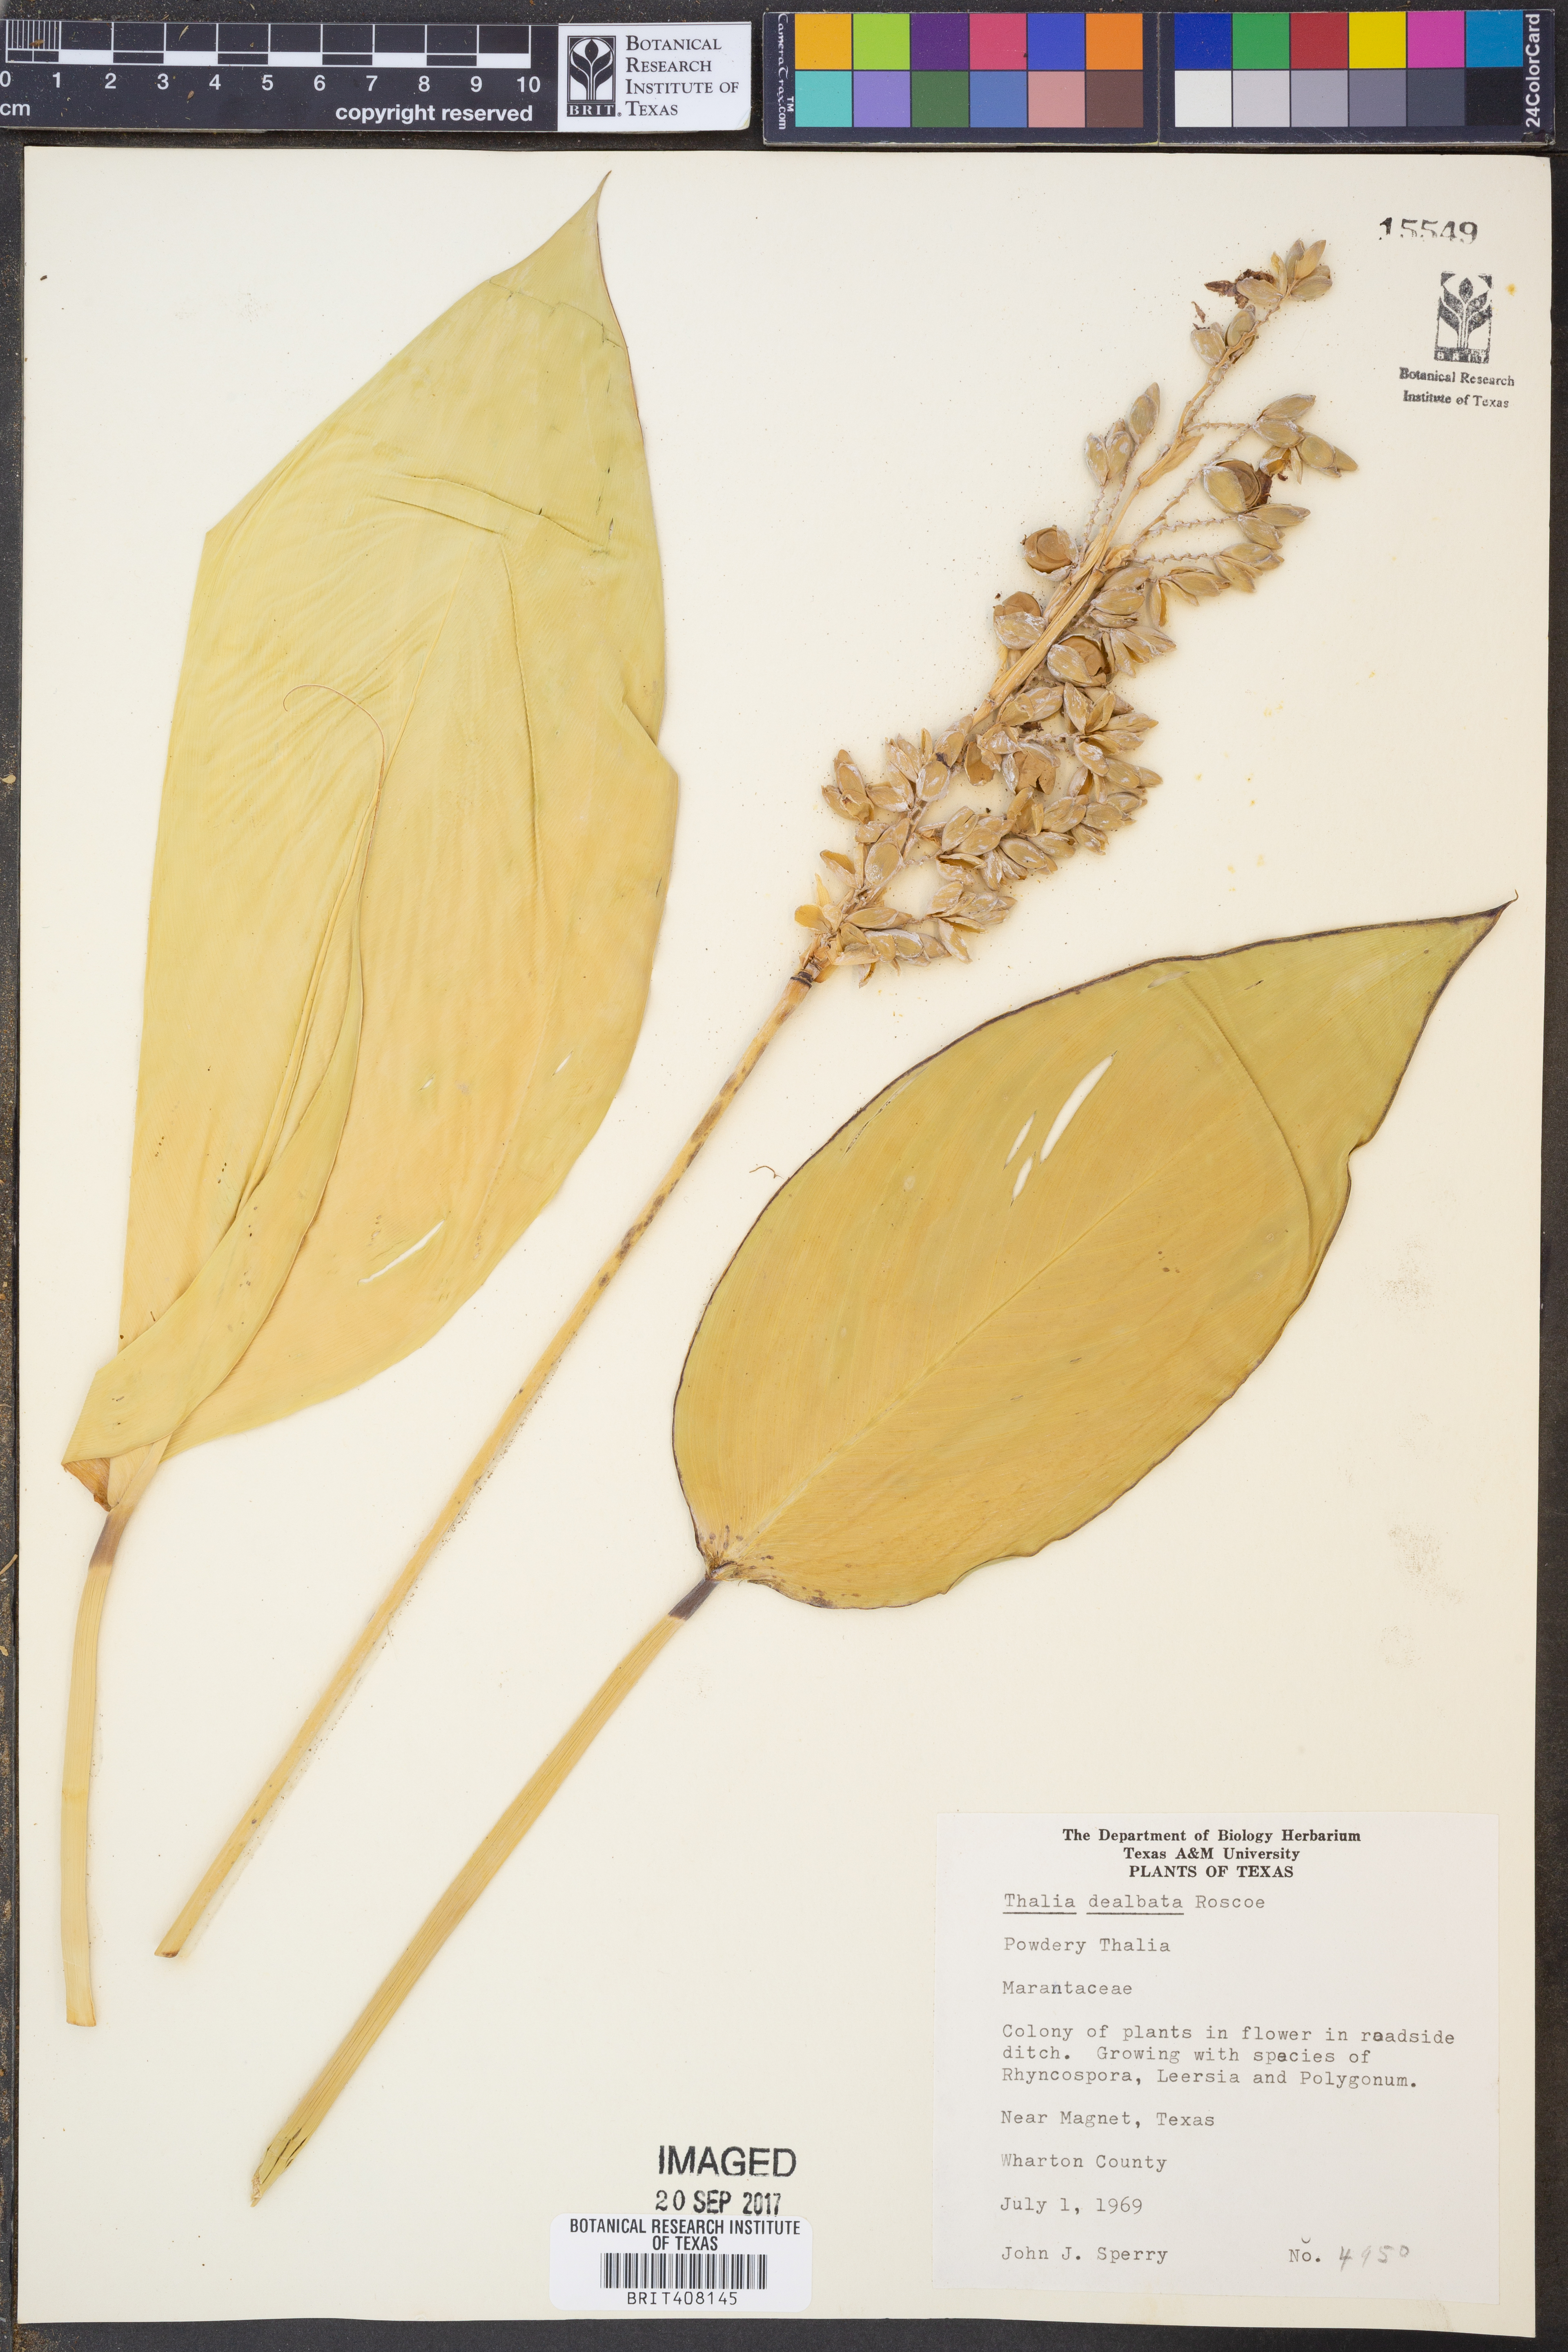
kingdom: Plantae
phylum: Tracheophyta
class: Liliopsida
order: Zingiberales
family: Marantaceae
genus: Thalia
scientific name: Thalia dealbata
